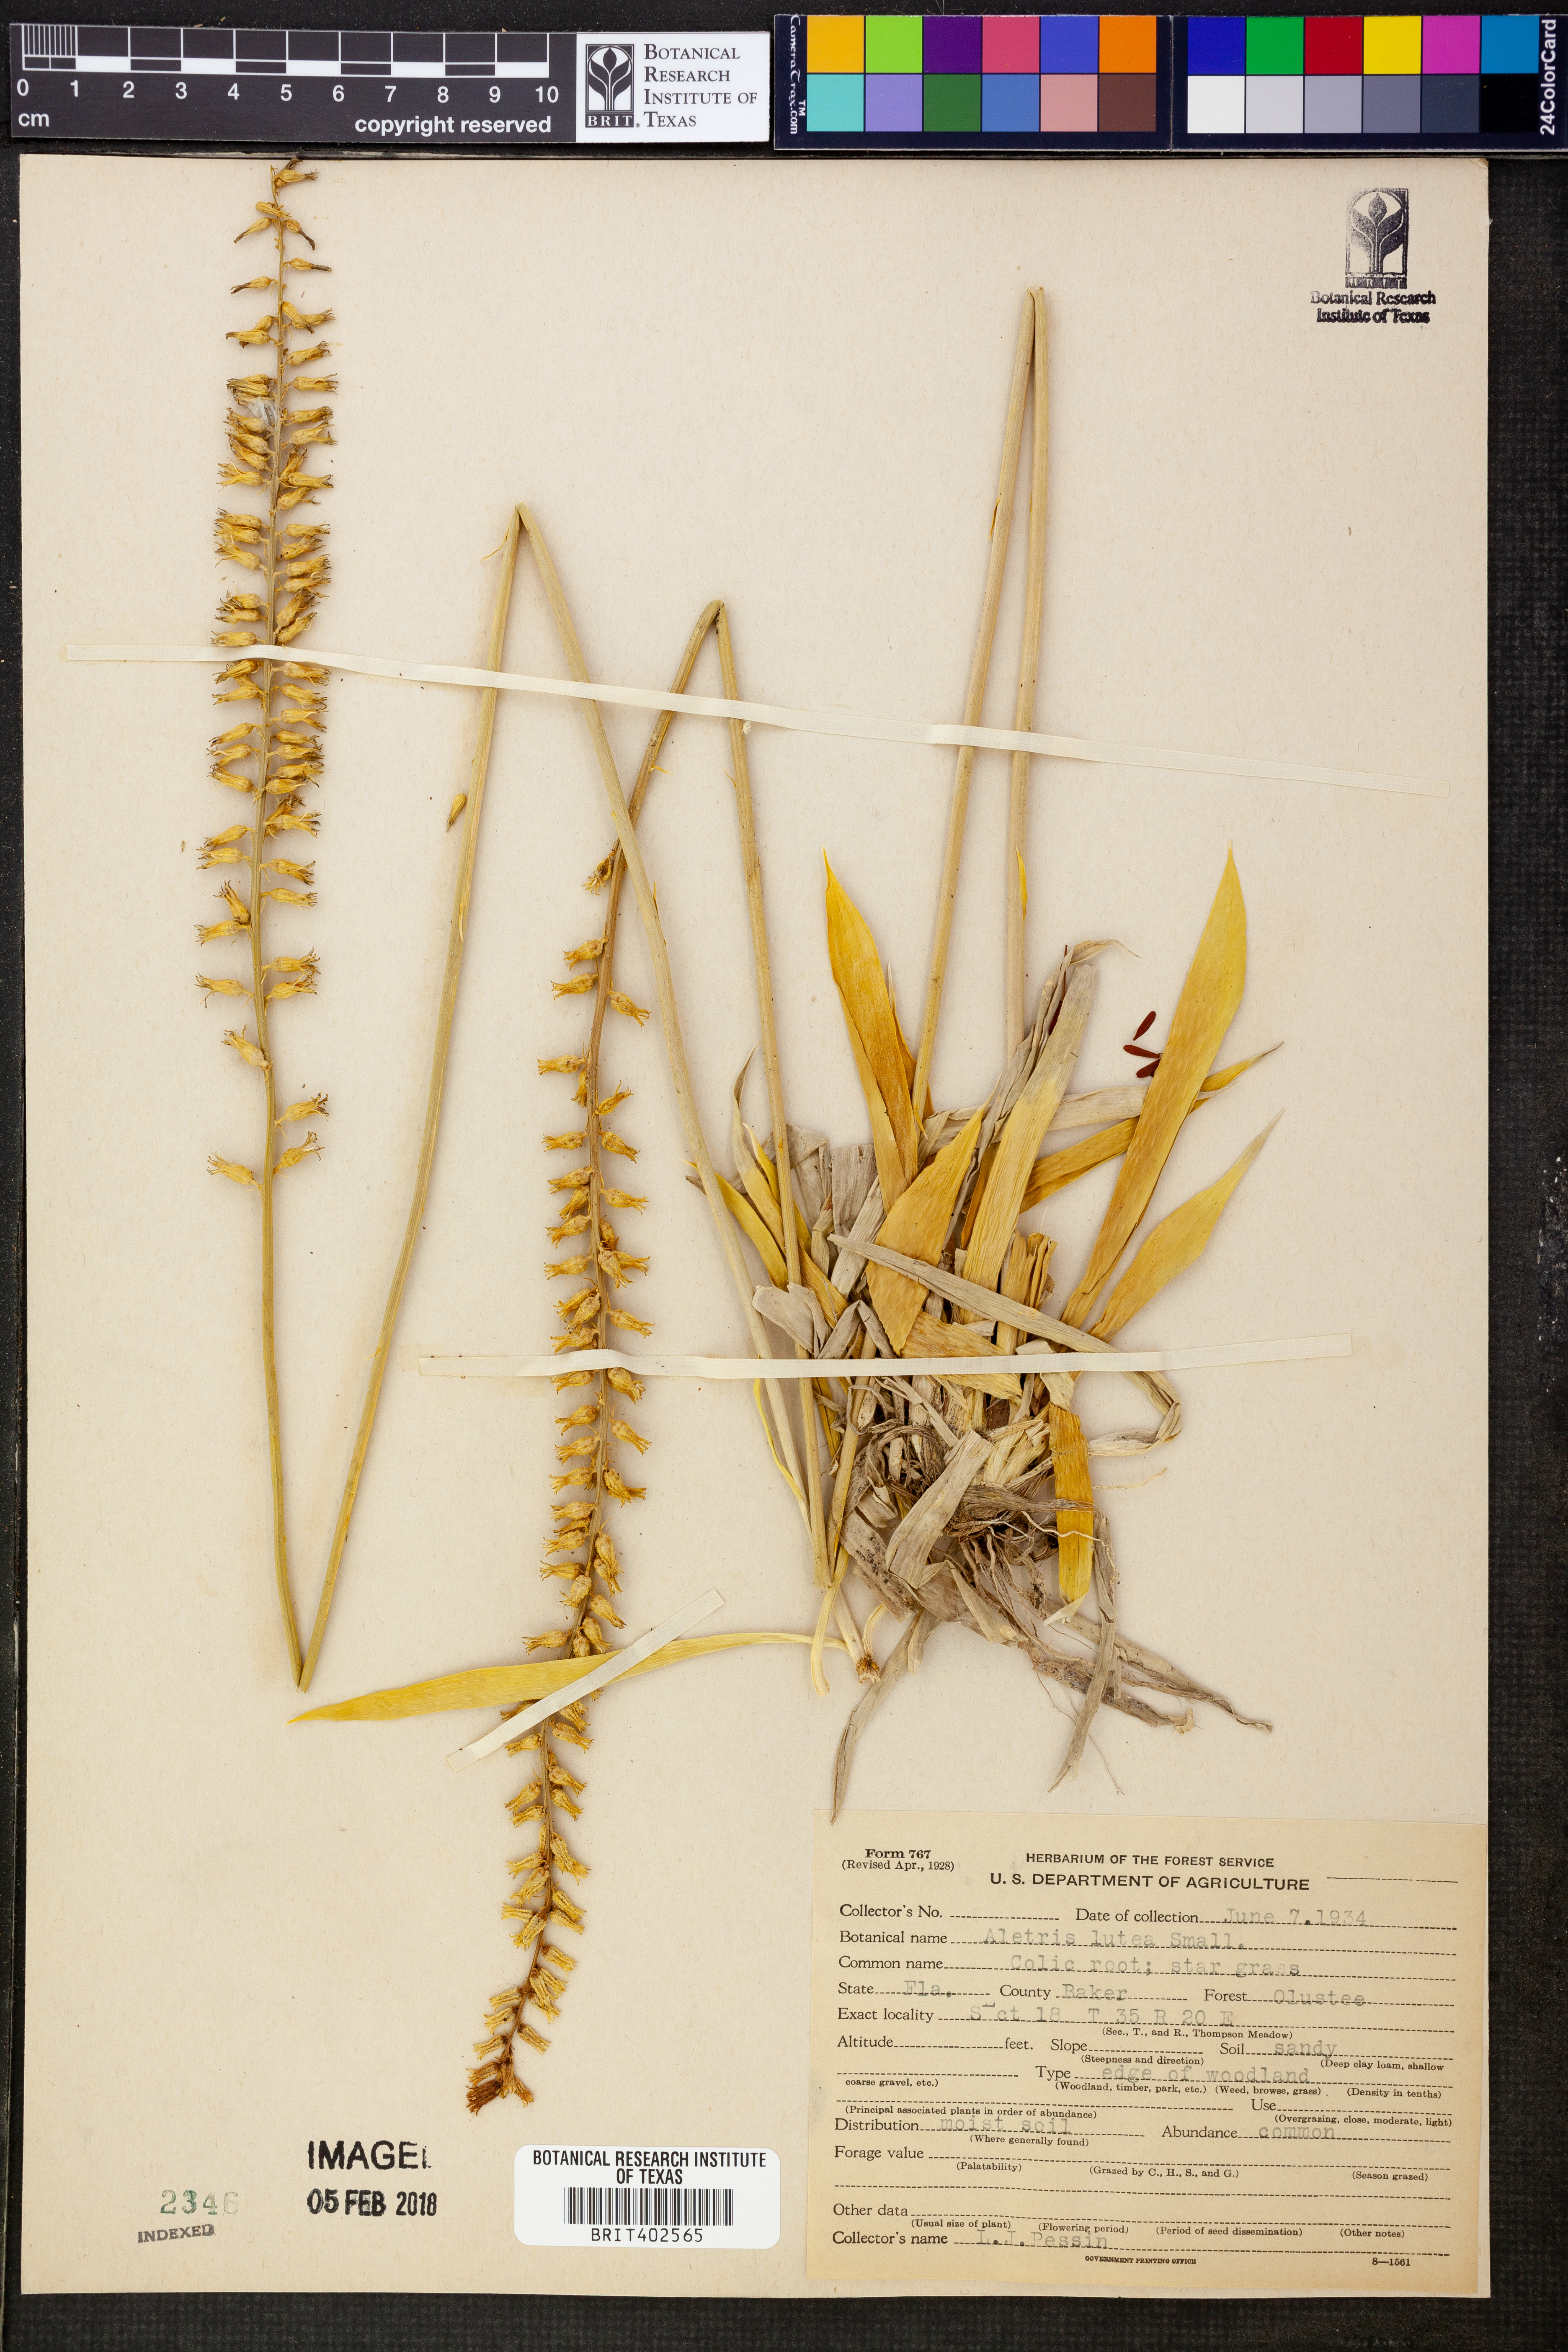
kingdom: Plantae
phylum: Tracheophyta
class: Liliopsida
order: Dioscoreales
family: Nartheciaceae
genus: Aletris
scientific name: Aletris lutea
